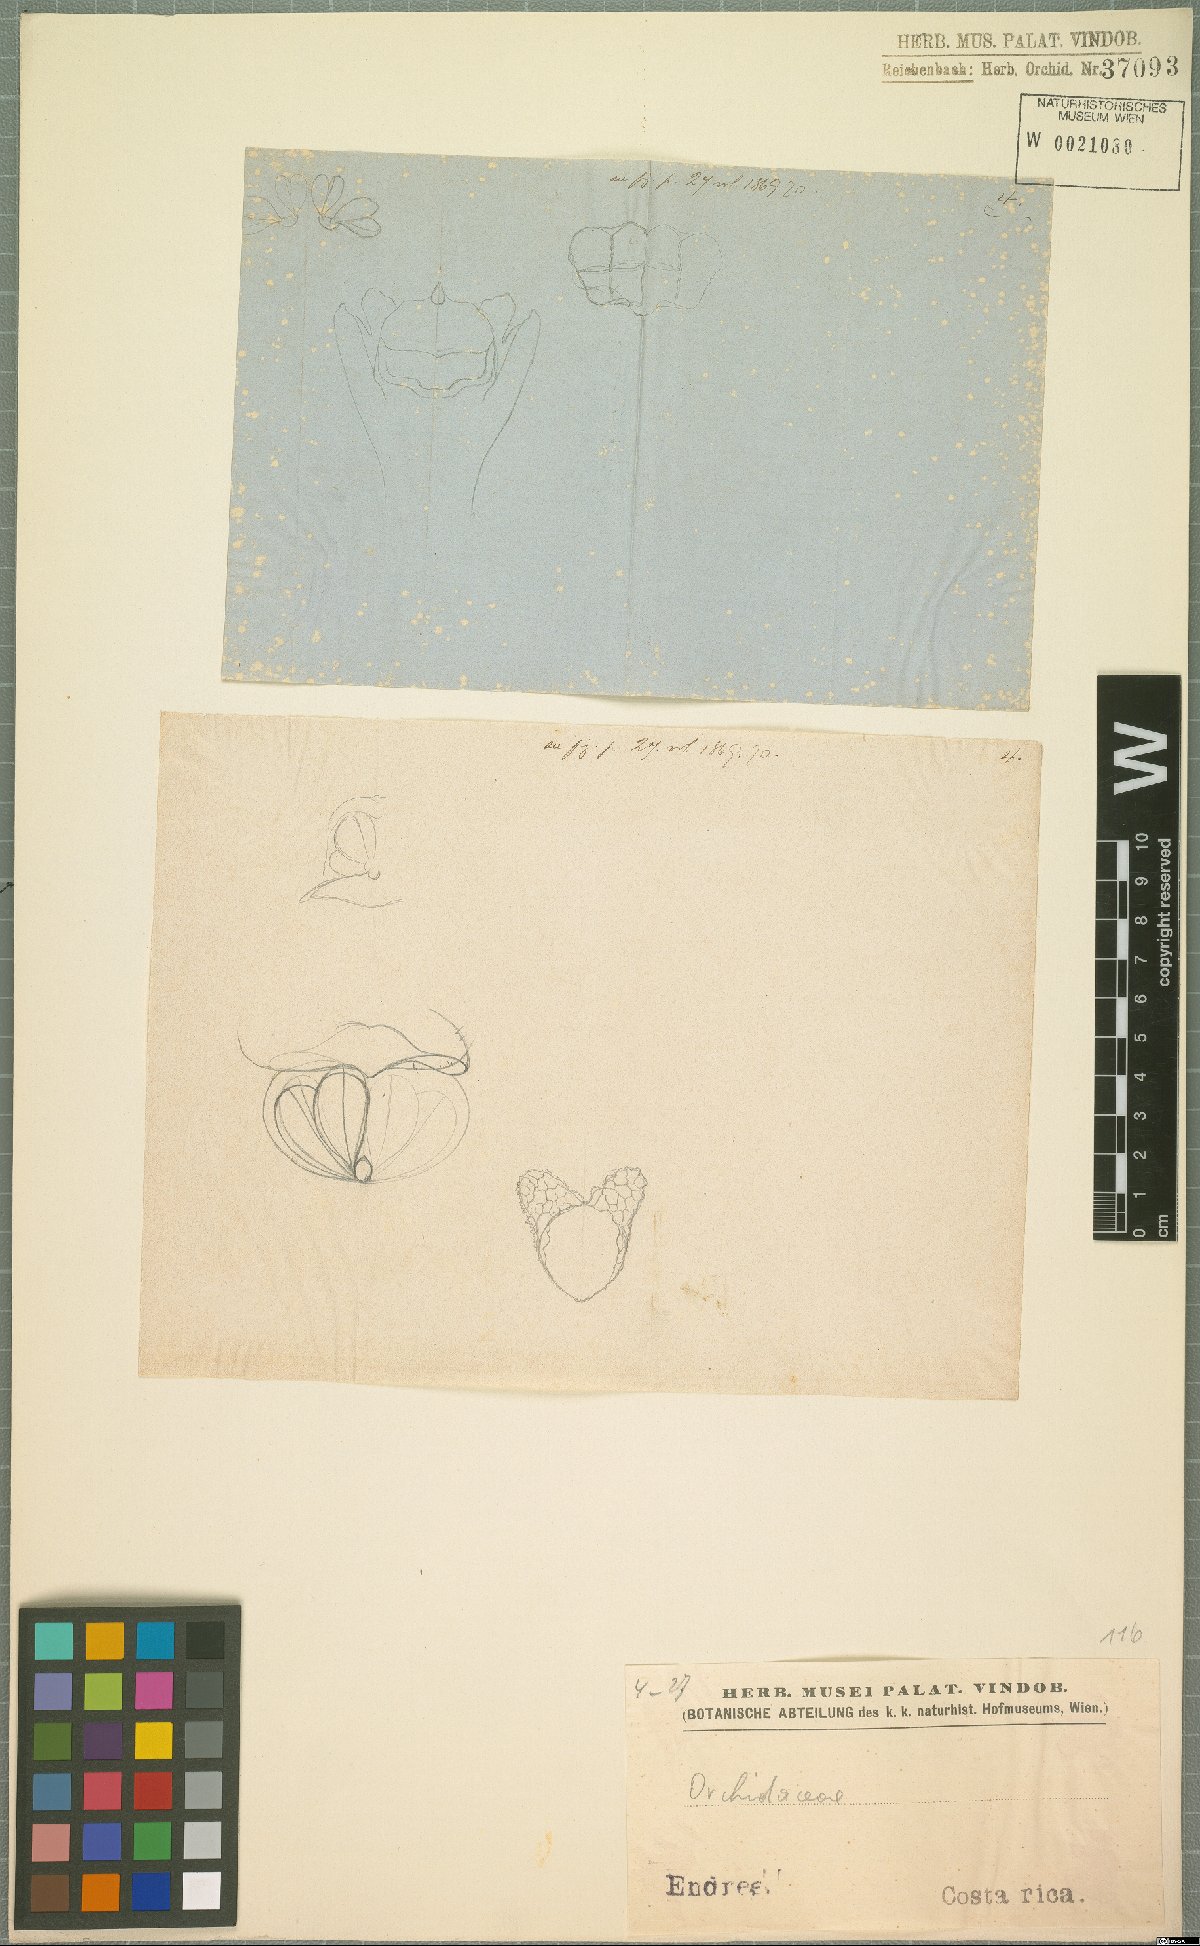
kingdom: Plantae
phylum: Tracheophyta
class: Liliopsida
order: Asparagales
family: Orchidaceae
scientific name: Orchidaceae
